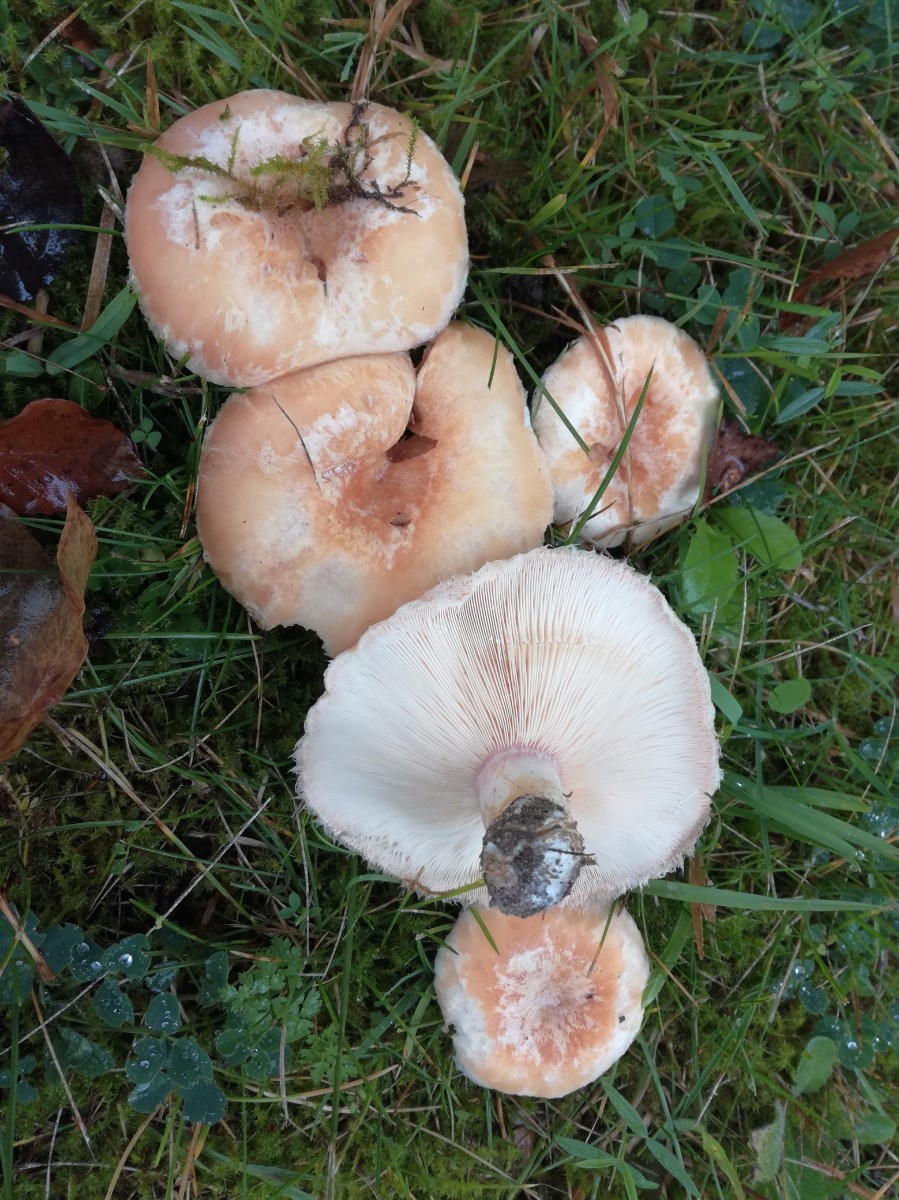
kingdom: Fungi
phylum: Basidiomycota
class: Agaricomycetes
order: Russulales
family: Russulaceae
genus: Lactarius
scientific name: Lactarius pubescens
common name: dunet mælkehat
